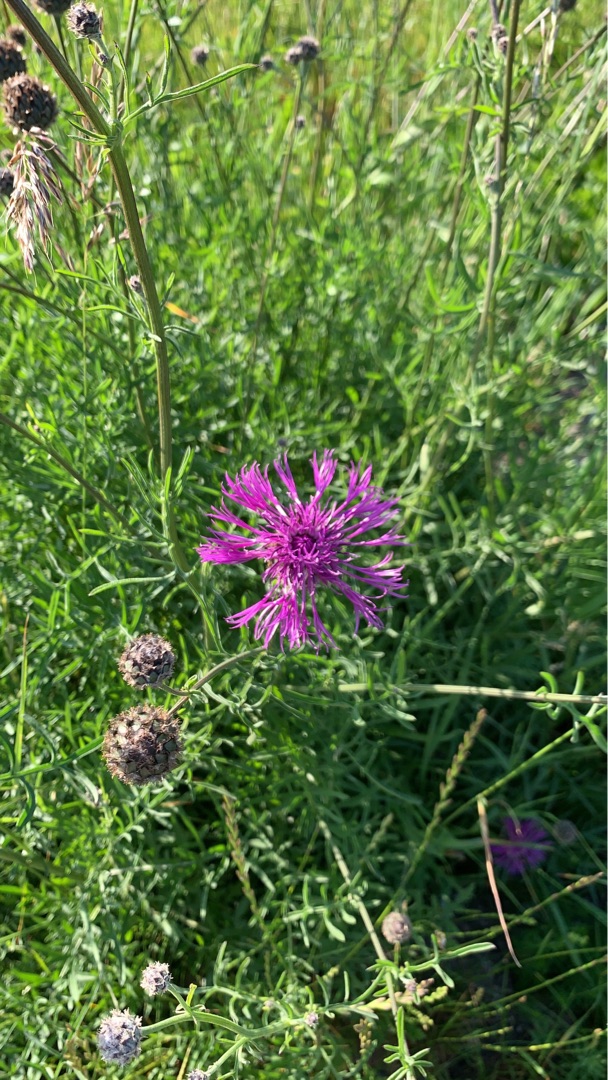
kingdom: Plantae
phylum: Tracheophyta
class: Magnoliopsida
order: Asterales
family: Asteraceae
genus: Centaurea
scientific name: Centaurea scabiosa
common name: Stor knopurt
